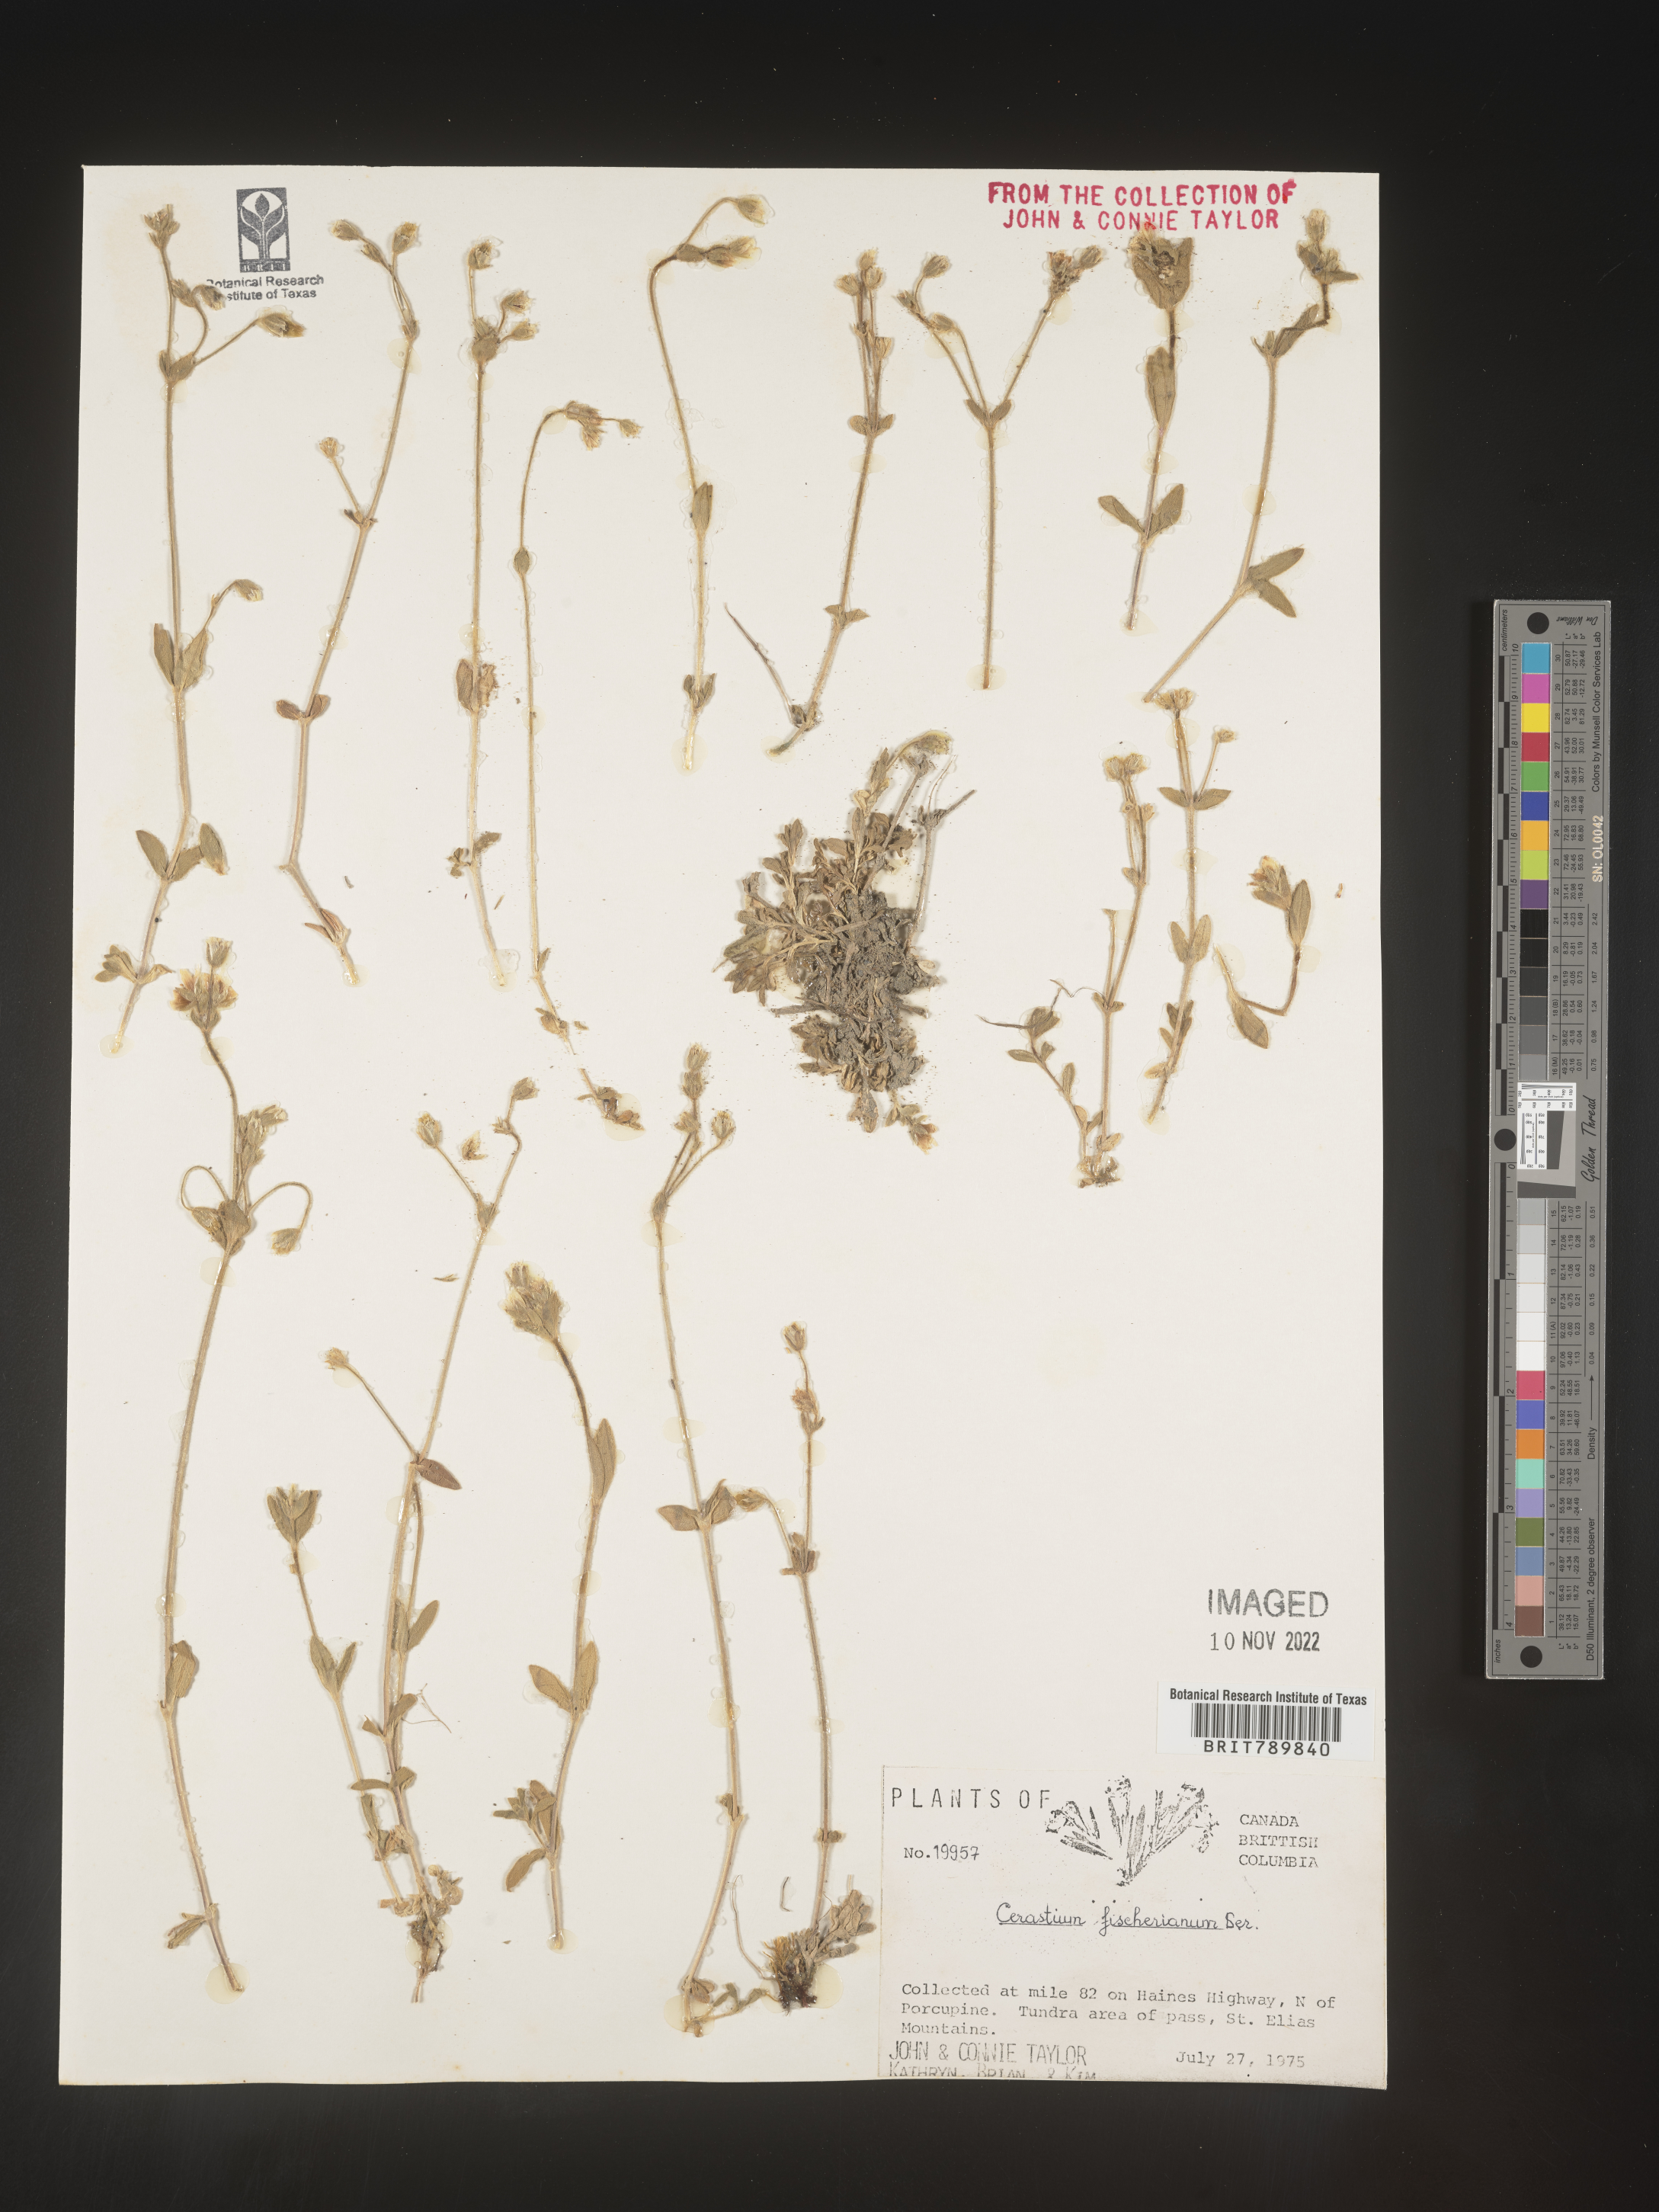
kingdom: Plantae
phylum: Tracheophyta
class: Magnoliopsida
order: Caryophyllales
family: Caryophyllaceae
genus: Cerastium
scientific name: Cerastium fischerianum
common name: Fischer's chickweed
